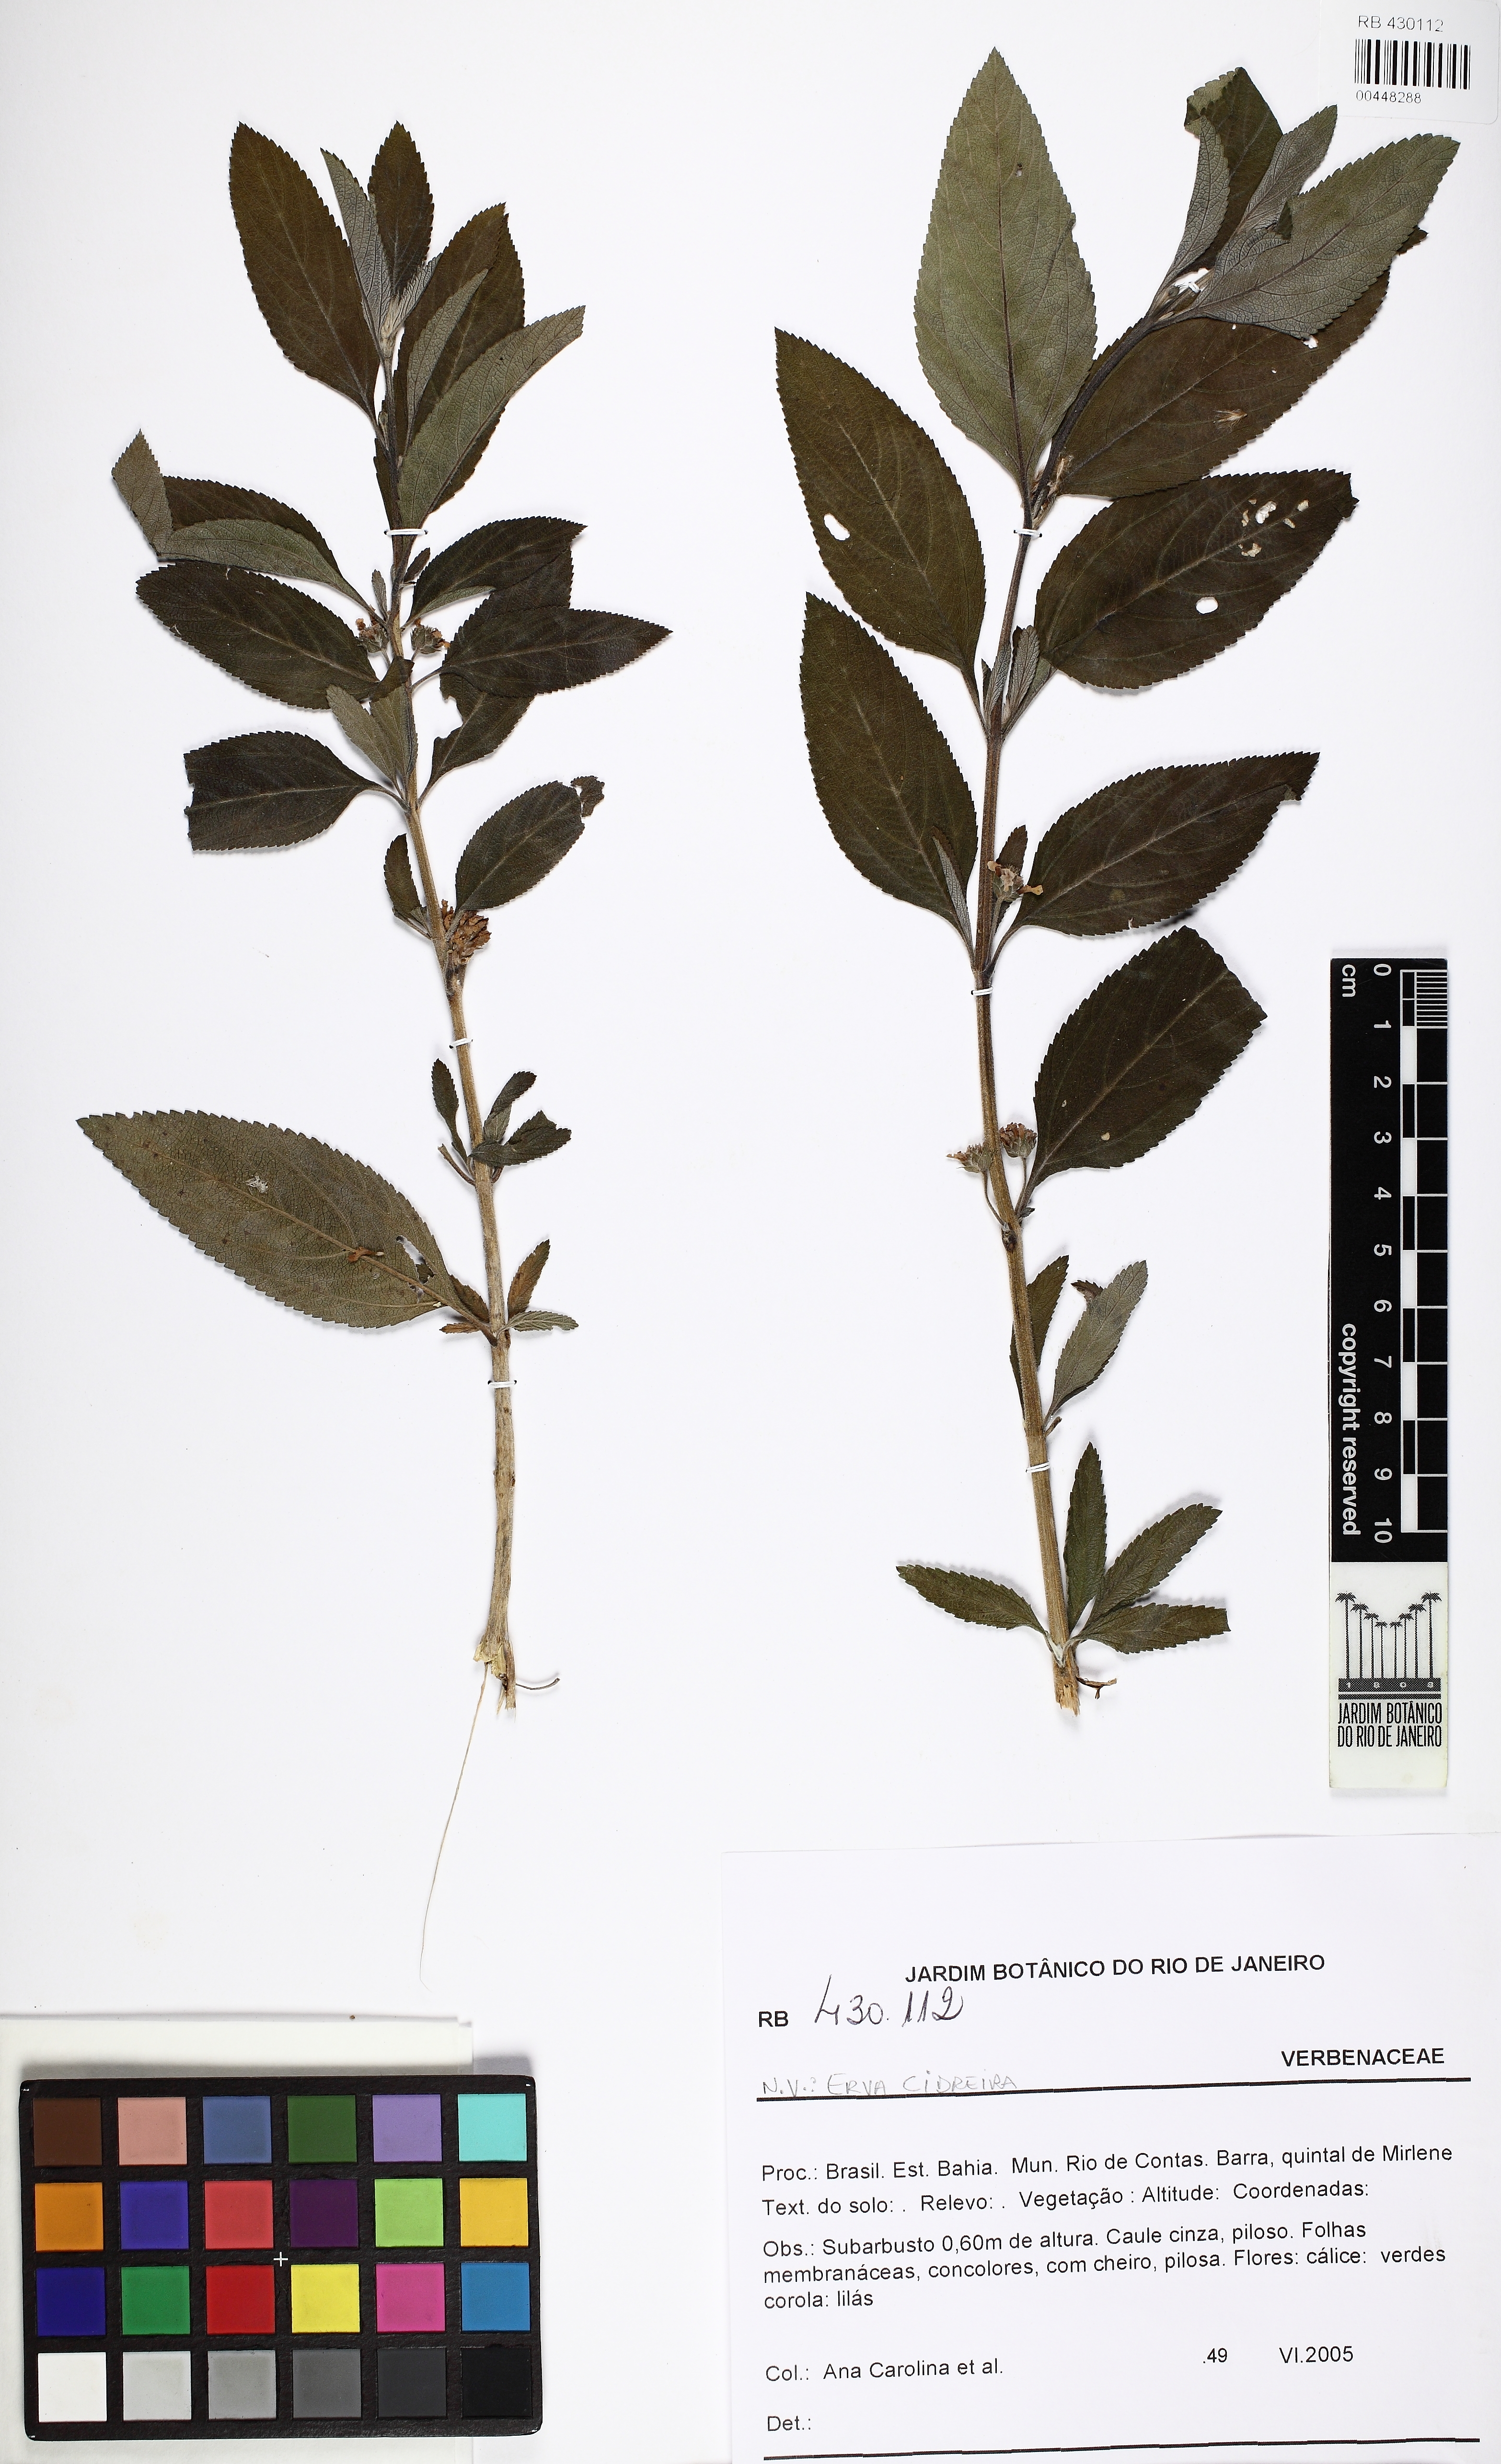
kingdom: Plantae
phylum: Tracheophyta
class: Magnoliopsida
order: Lamiales
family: Verbenaceae
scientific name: Verbenaceae
